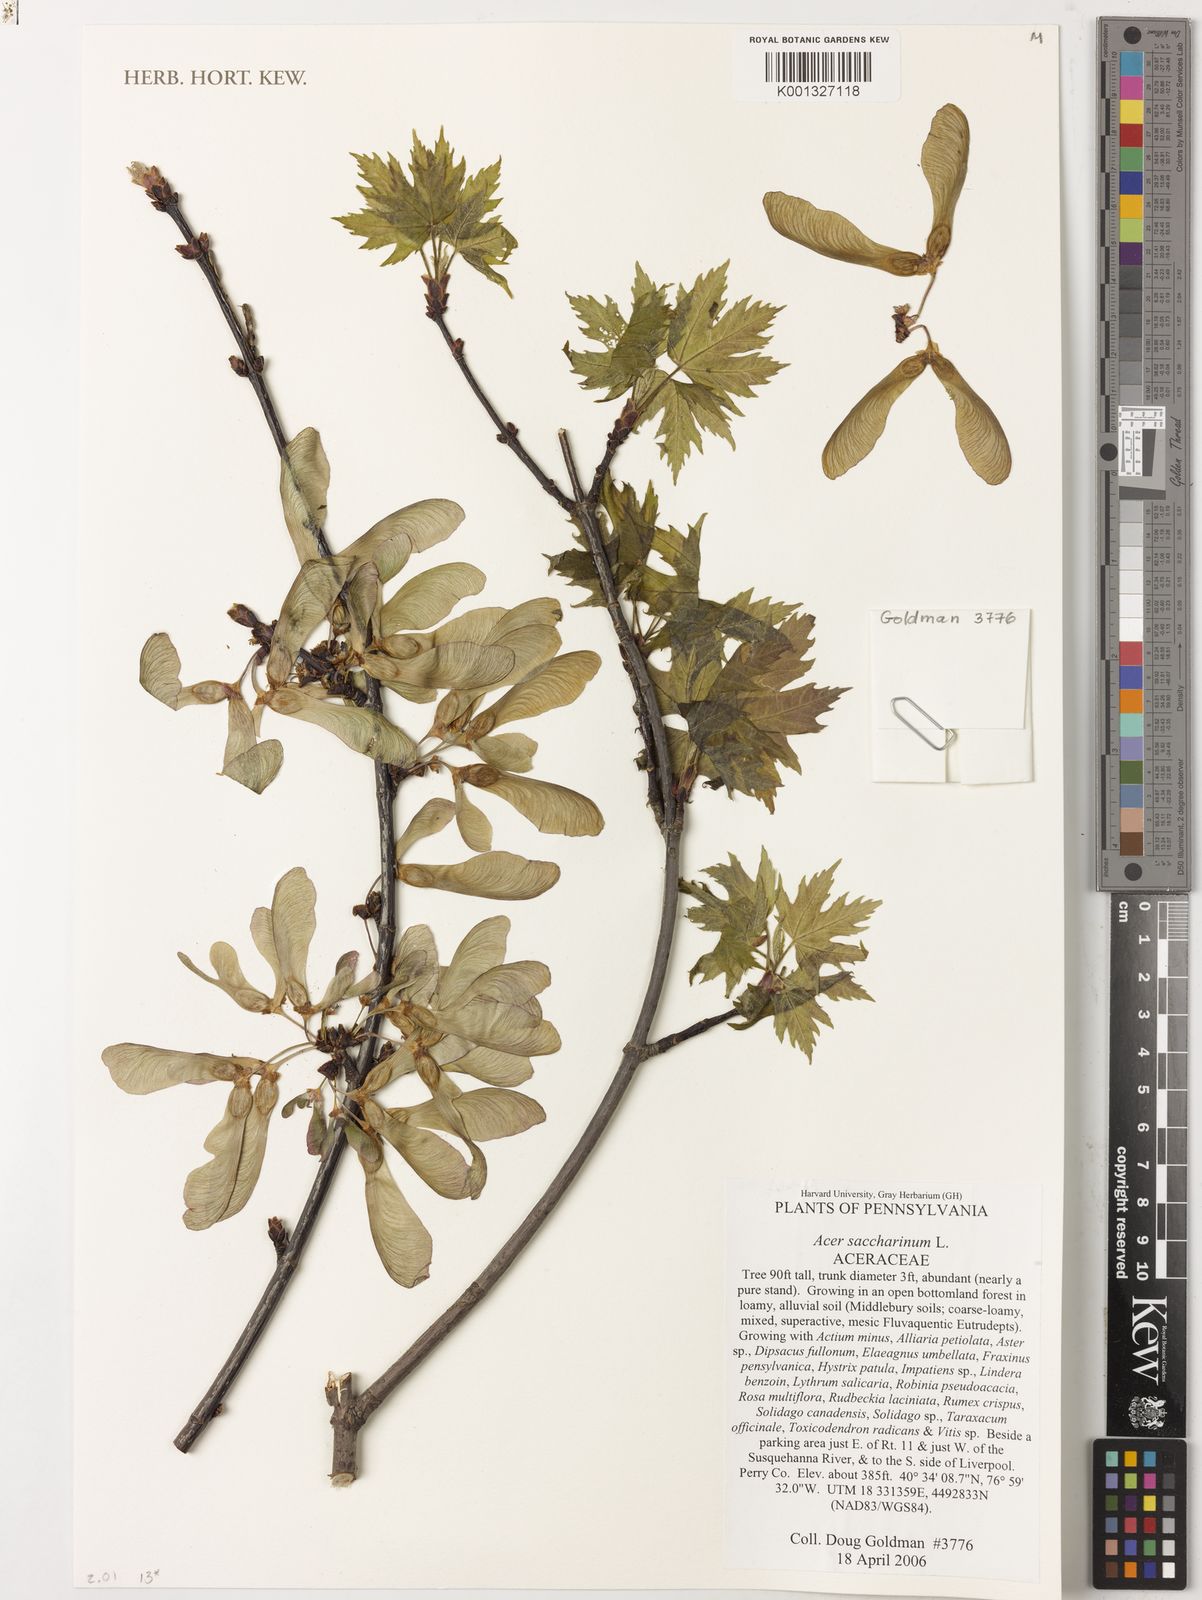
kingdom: Plantae
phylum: Tracheophyta
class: Magnoliopsida
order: Sapindales
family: Sapindaceae
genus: Acer
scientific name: Acer saccharinum
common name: Silver maple
